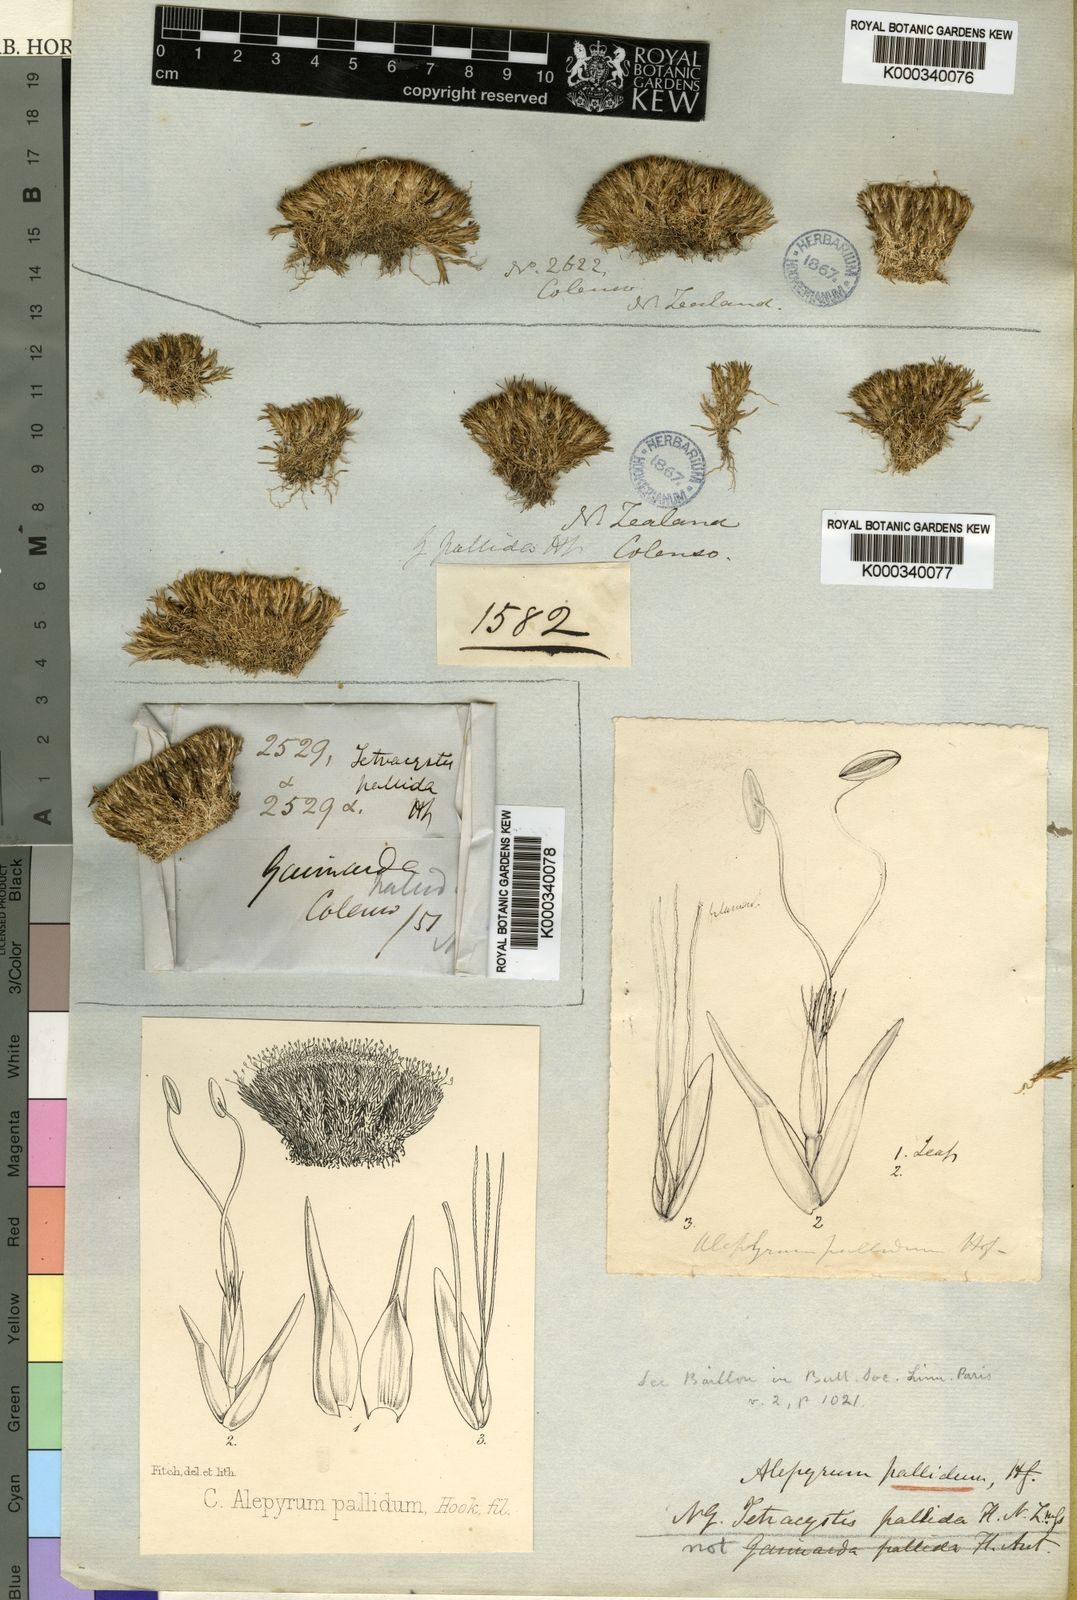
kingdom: Plantae
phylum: Tracheophyta
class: Liliopsida
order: Poales
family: Restionaceae
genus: Centrolepis
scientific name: Centrolepis pallida
